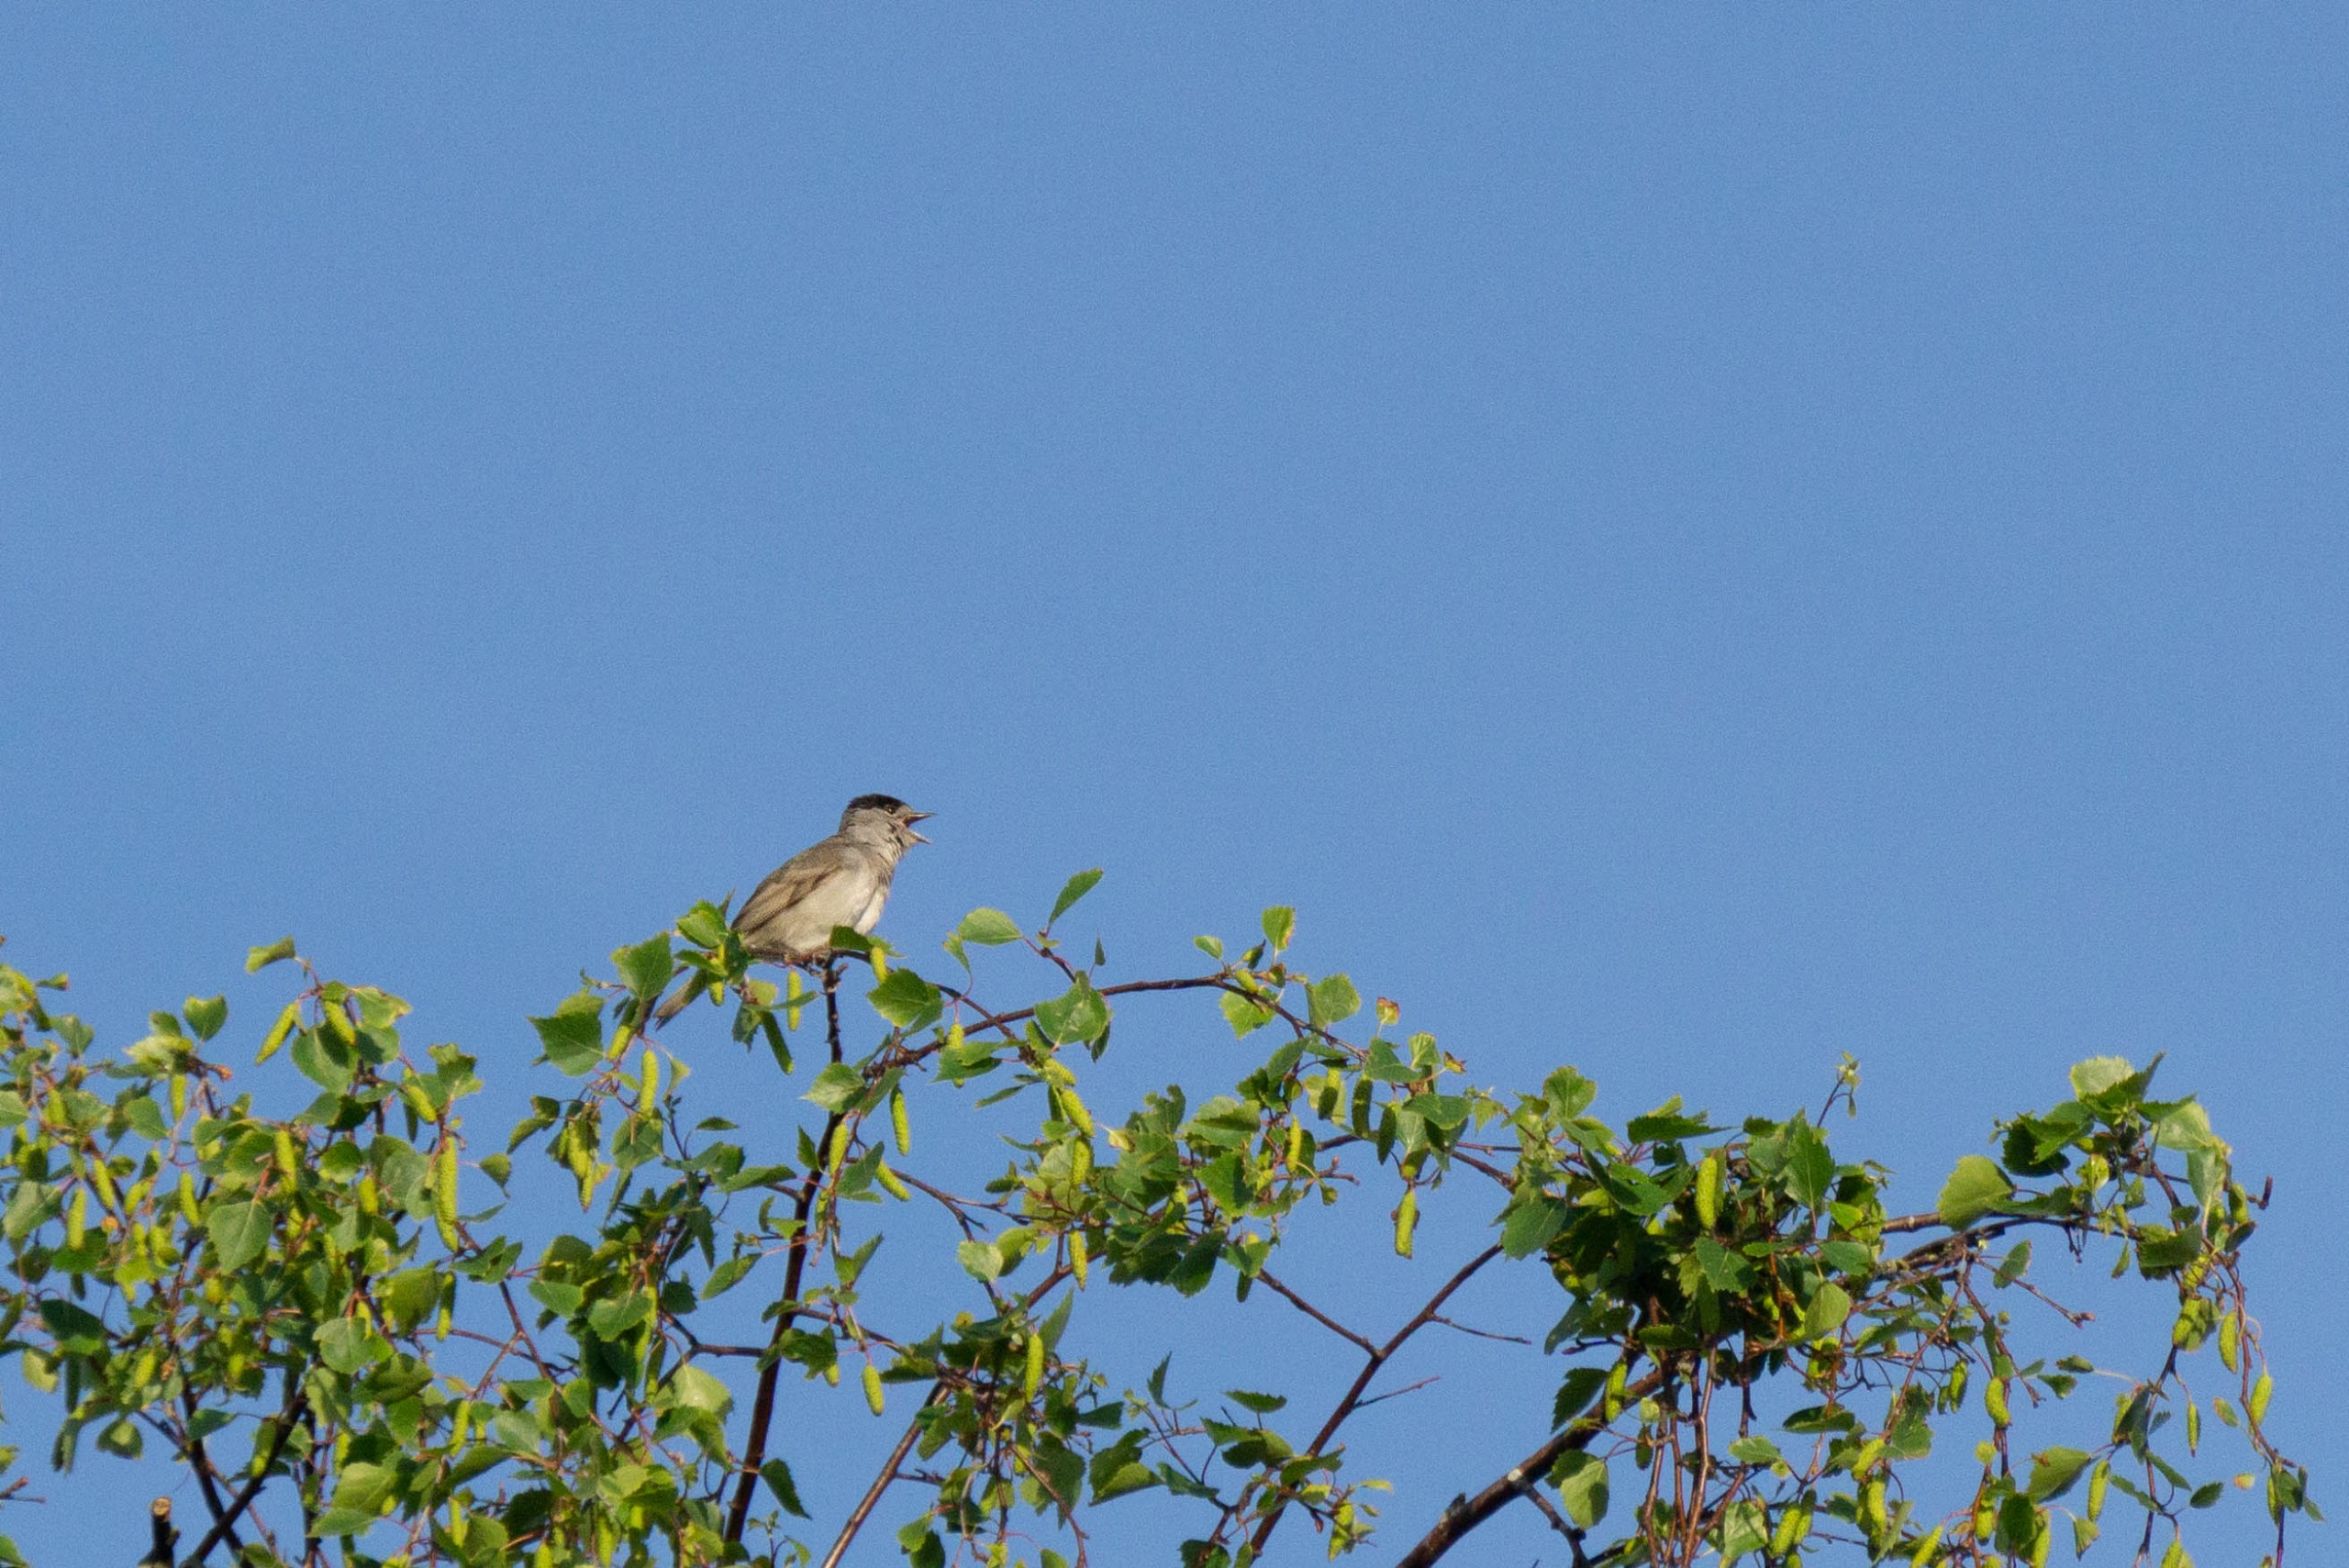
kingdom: Animalia
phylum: Chordata
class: Aves
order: Passeriformes
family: Sylviidae
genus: Sylvia
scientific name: Sylvia atricapilla
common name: Munk
